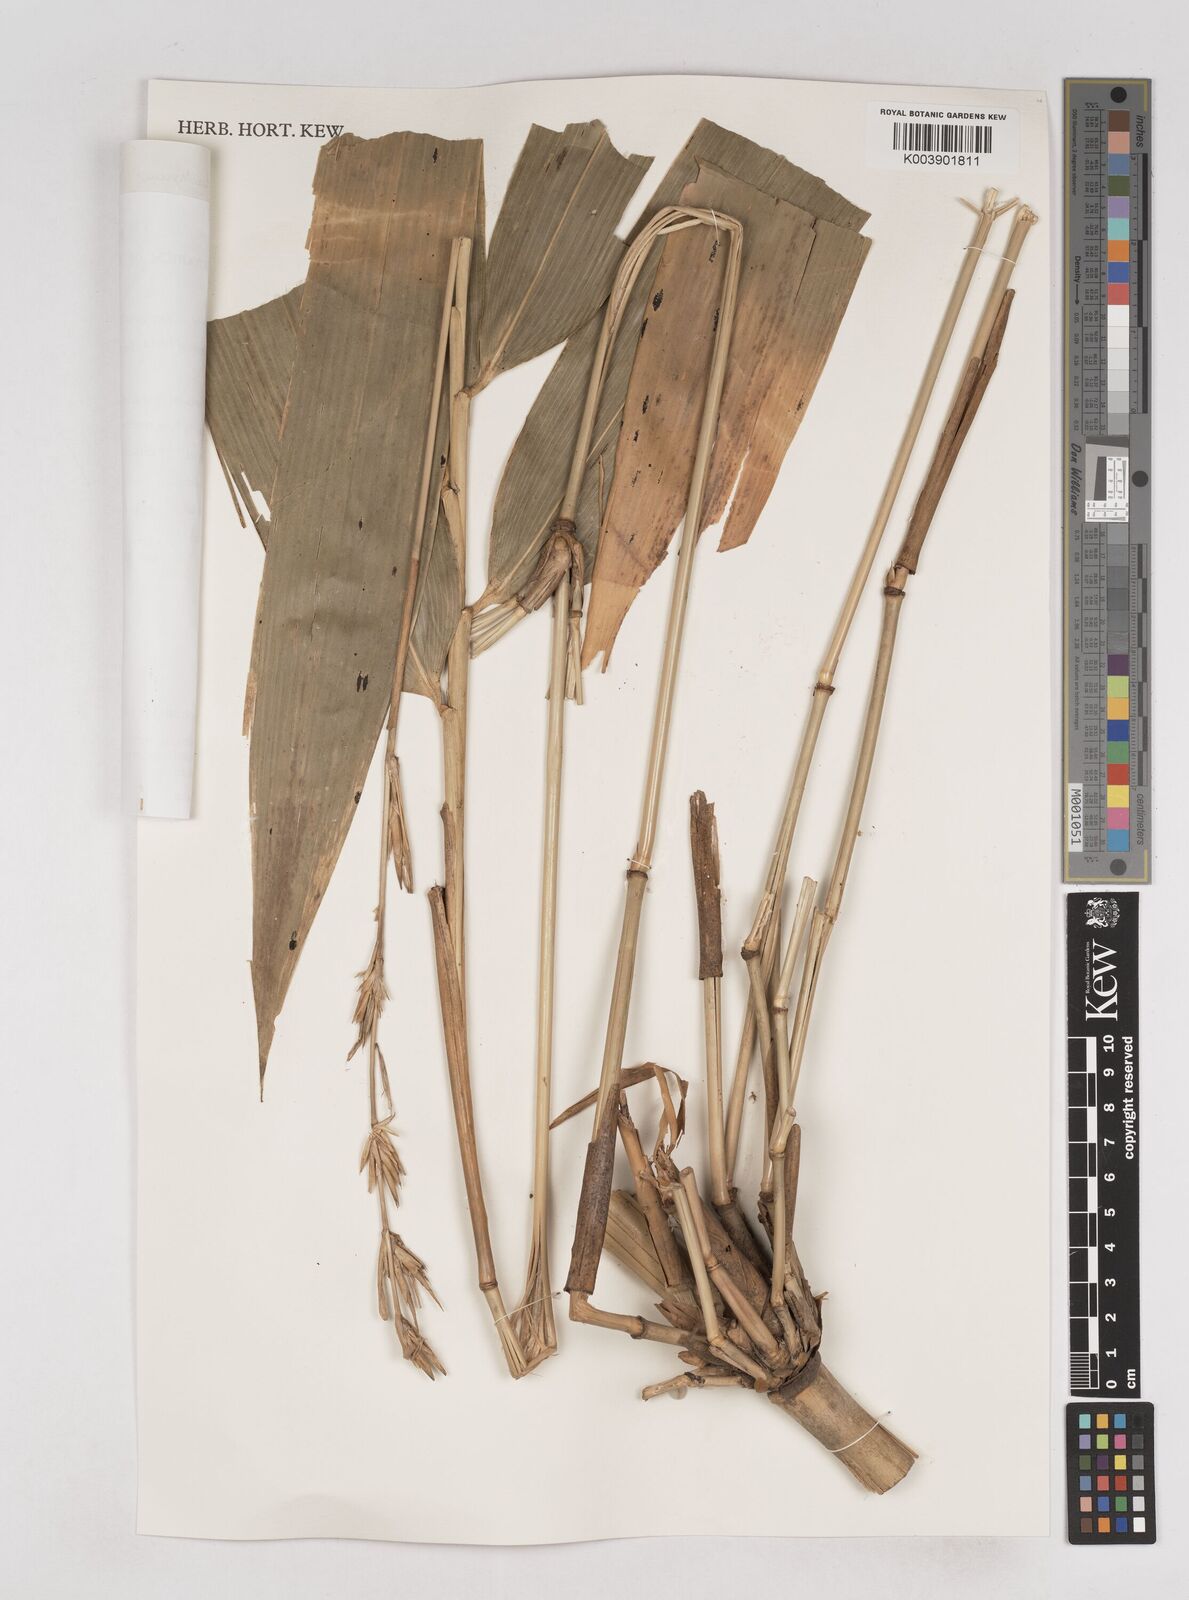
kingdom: Plantae
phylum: Tracheophyta
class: Liliopsida
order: Poales
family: Poaceae
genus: Schizostachyum
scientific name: Schizostachyum blumei
